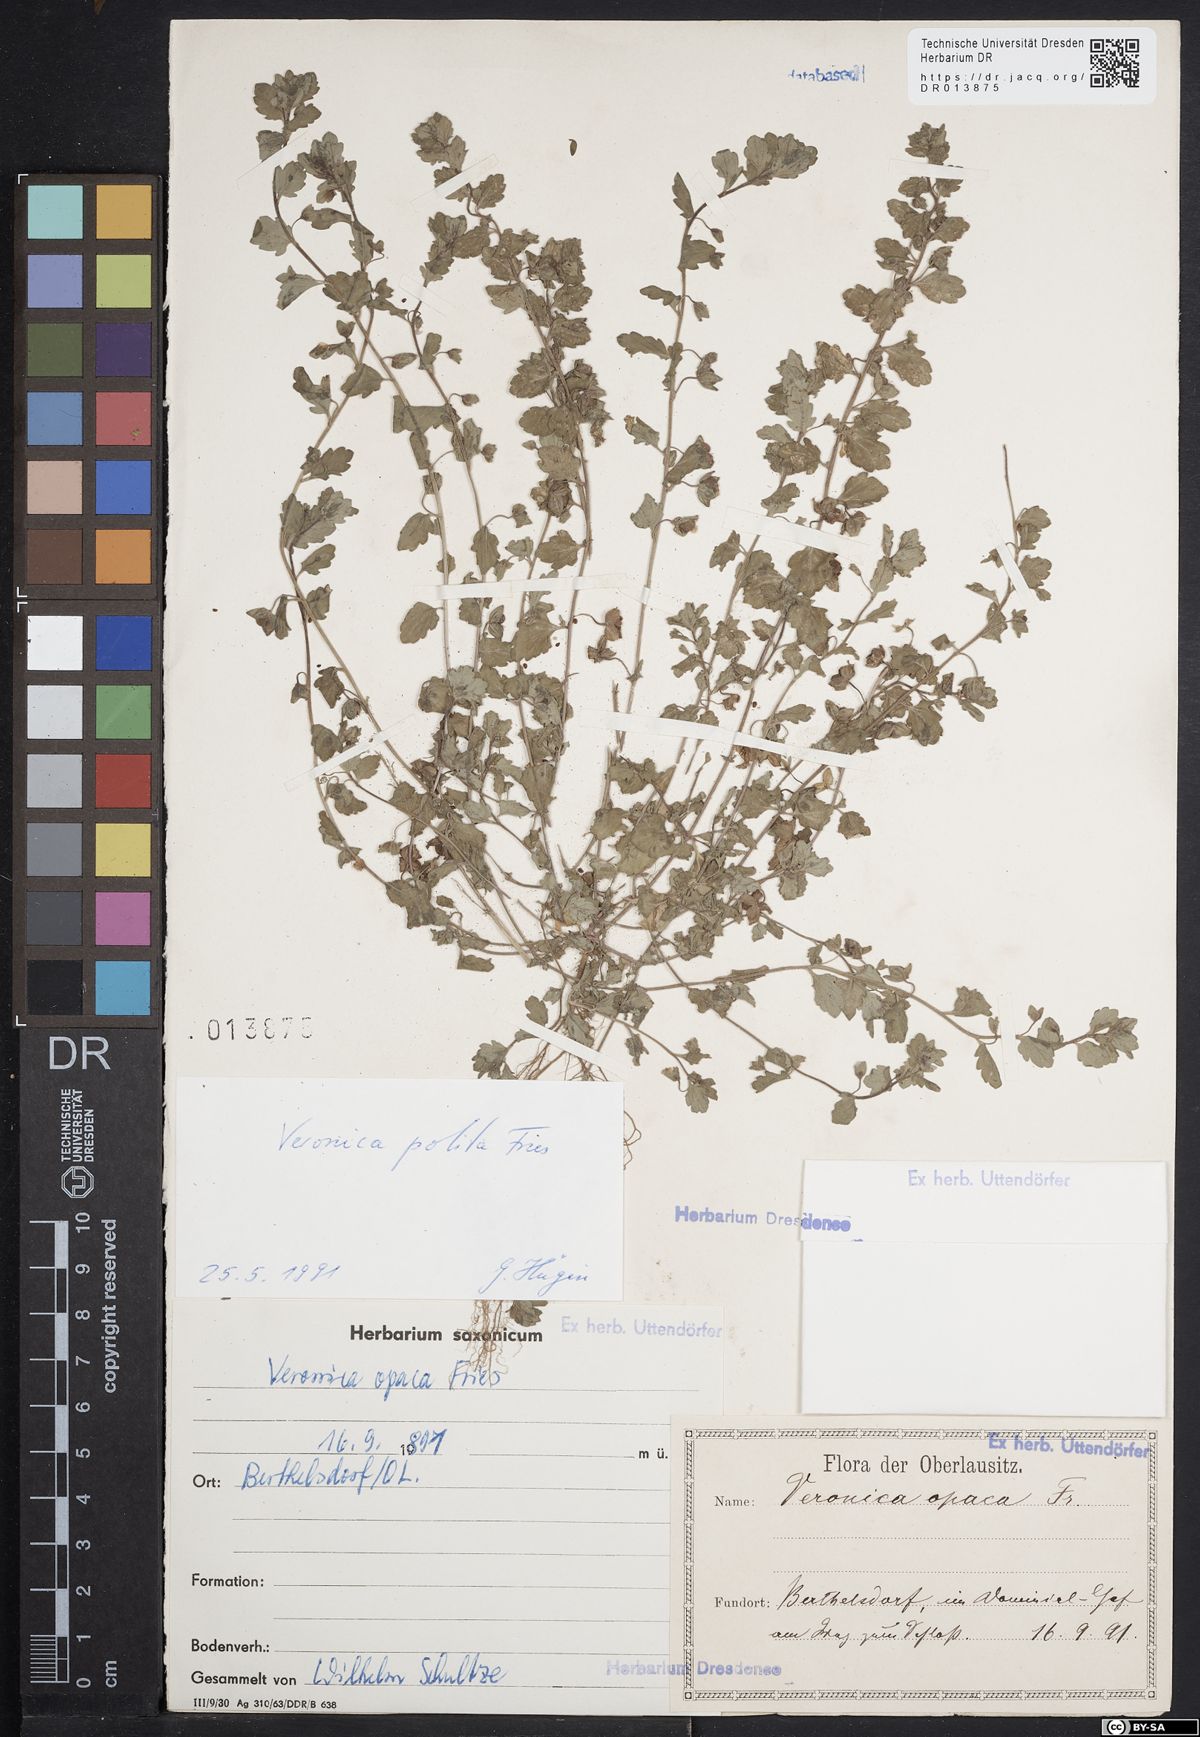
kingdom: Plantae
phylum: Tracheophyta
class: Magnoliopsida
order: Lamiales
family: Plantaginaceae
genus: Veronica
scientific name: Veronica polita
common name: Grey field-speedwell
